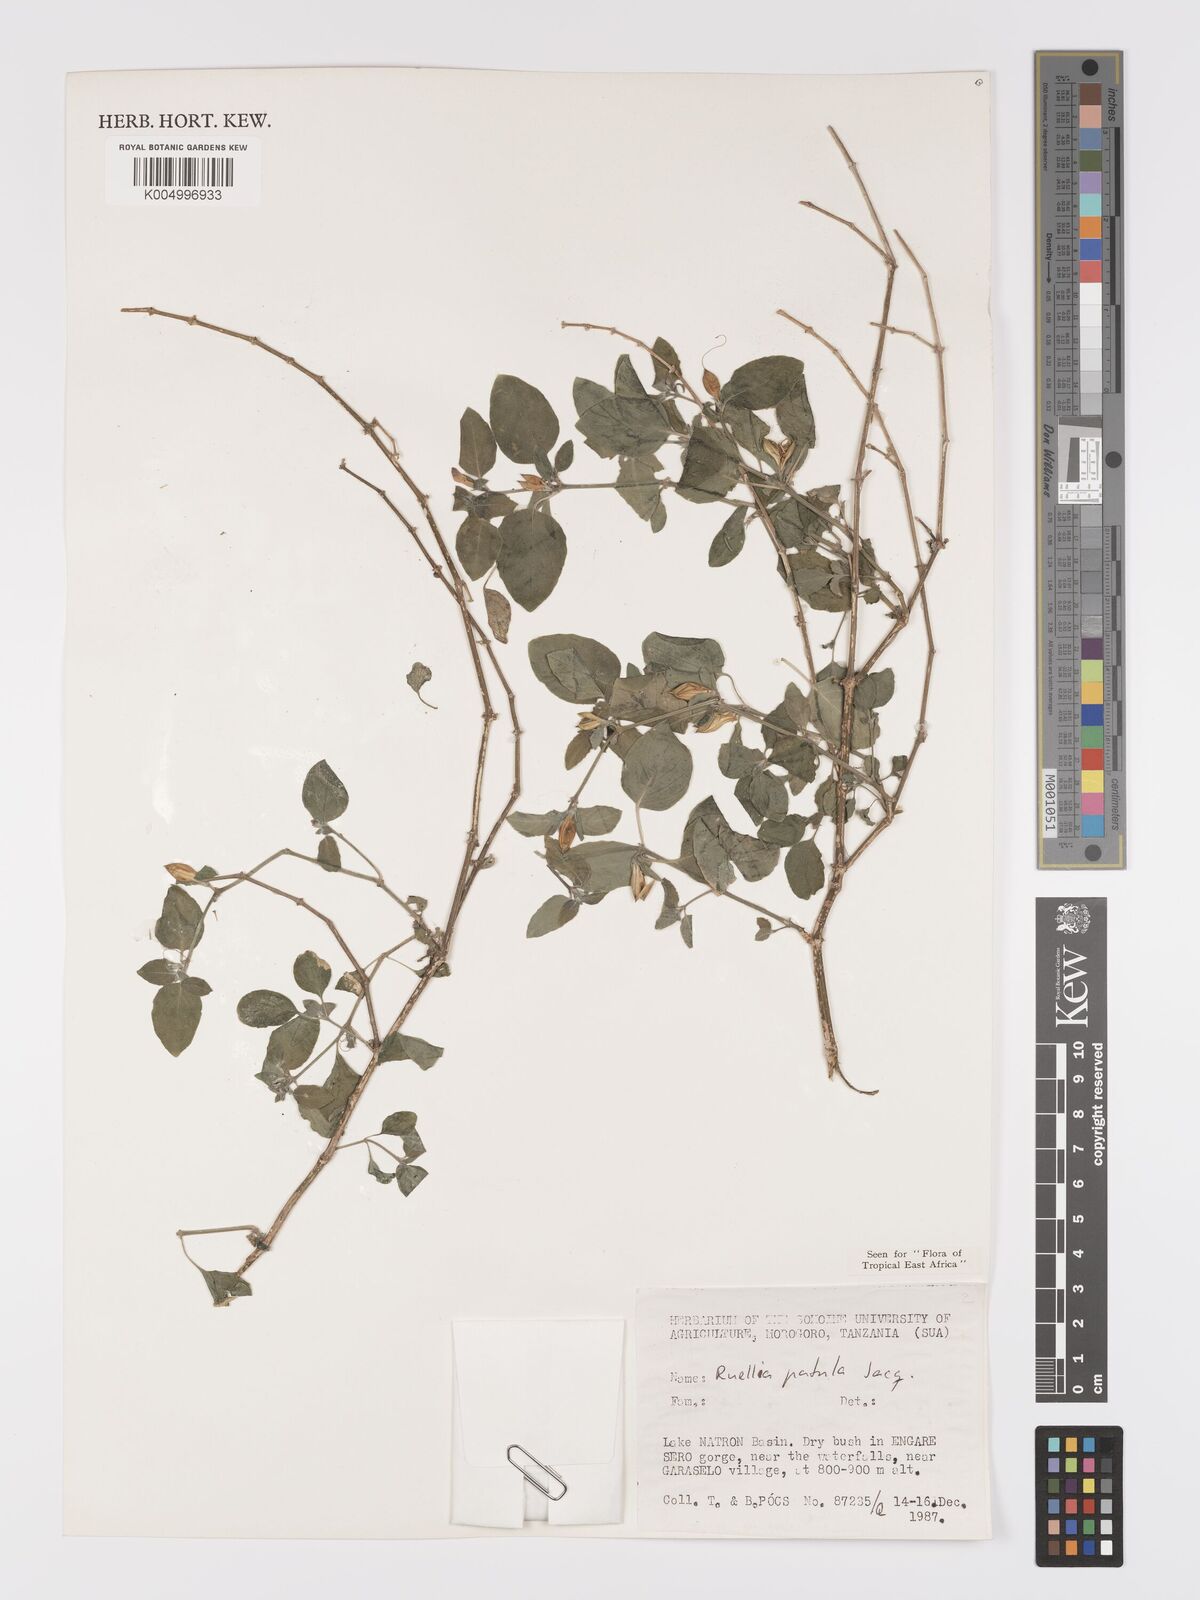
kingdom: Plantae
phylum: Tracheophyta
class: Magnoliopsida
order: Lamiales
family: Acanthaceae
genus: Ruellia
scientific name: Ruellia patula
